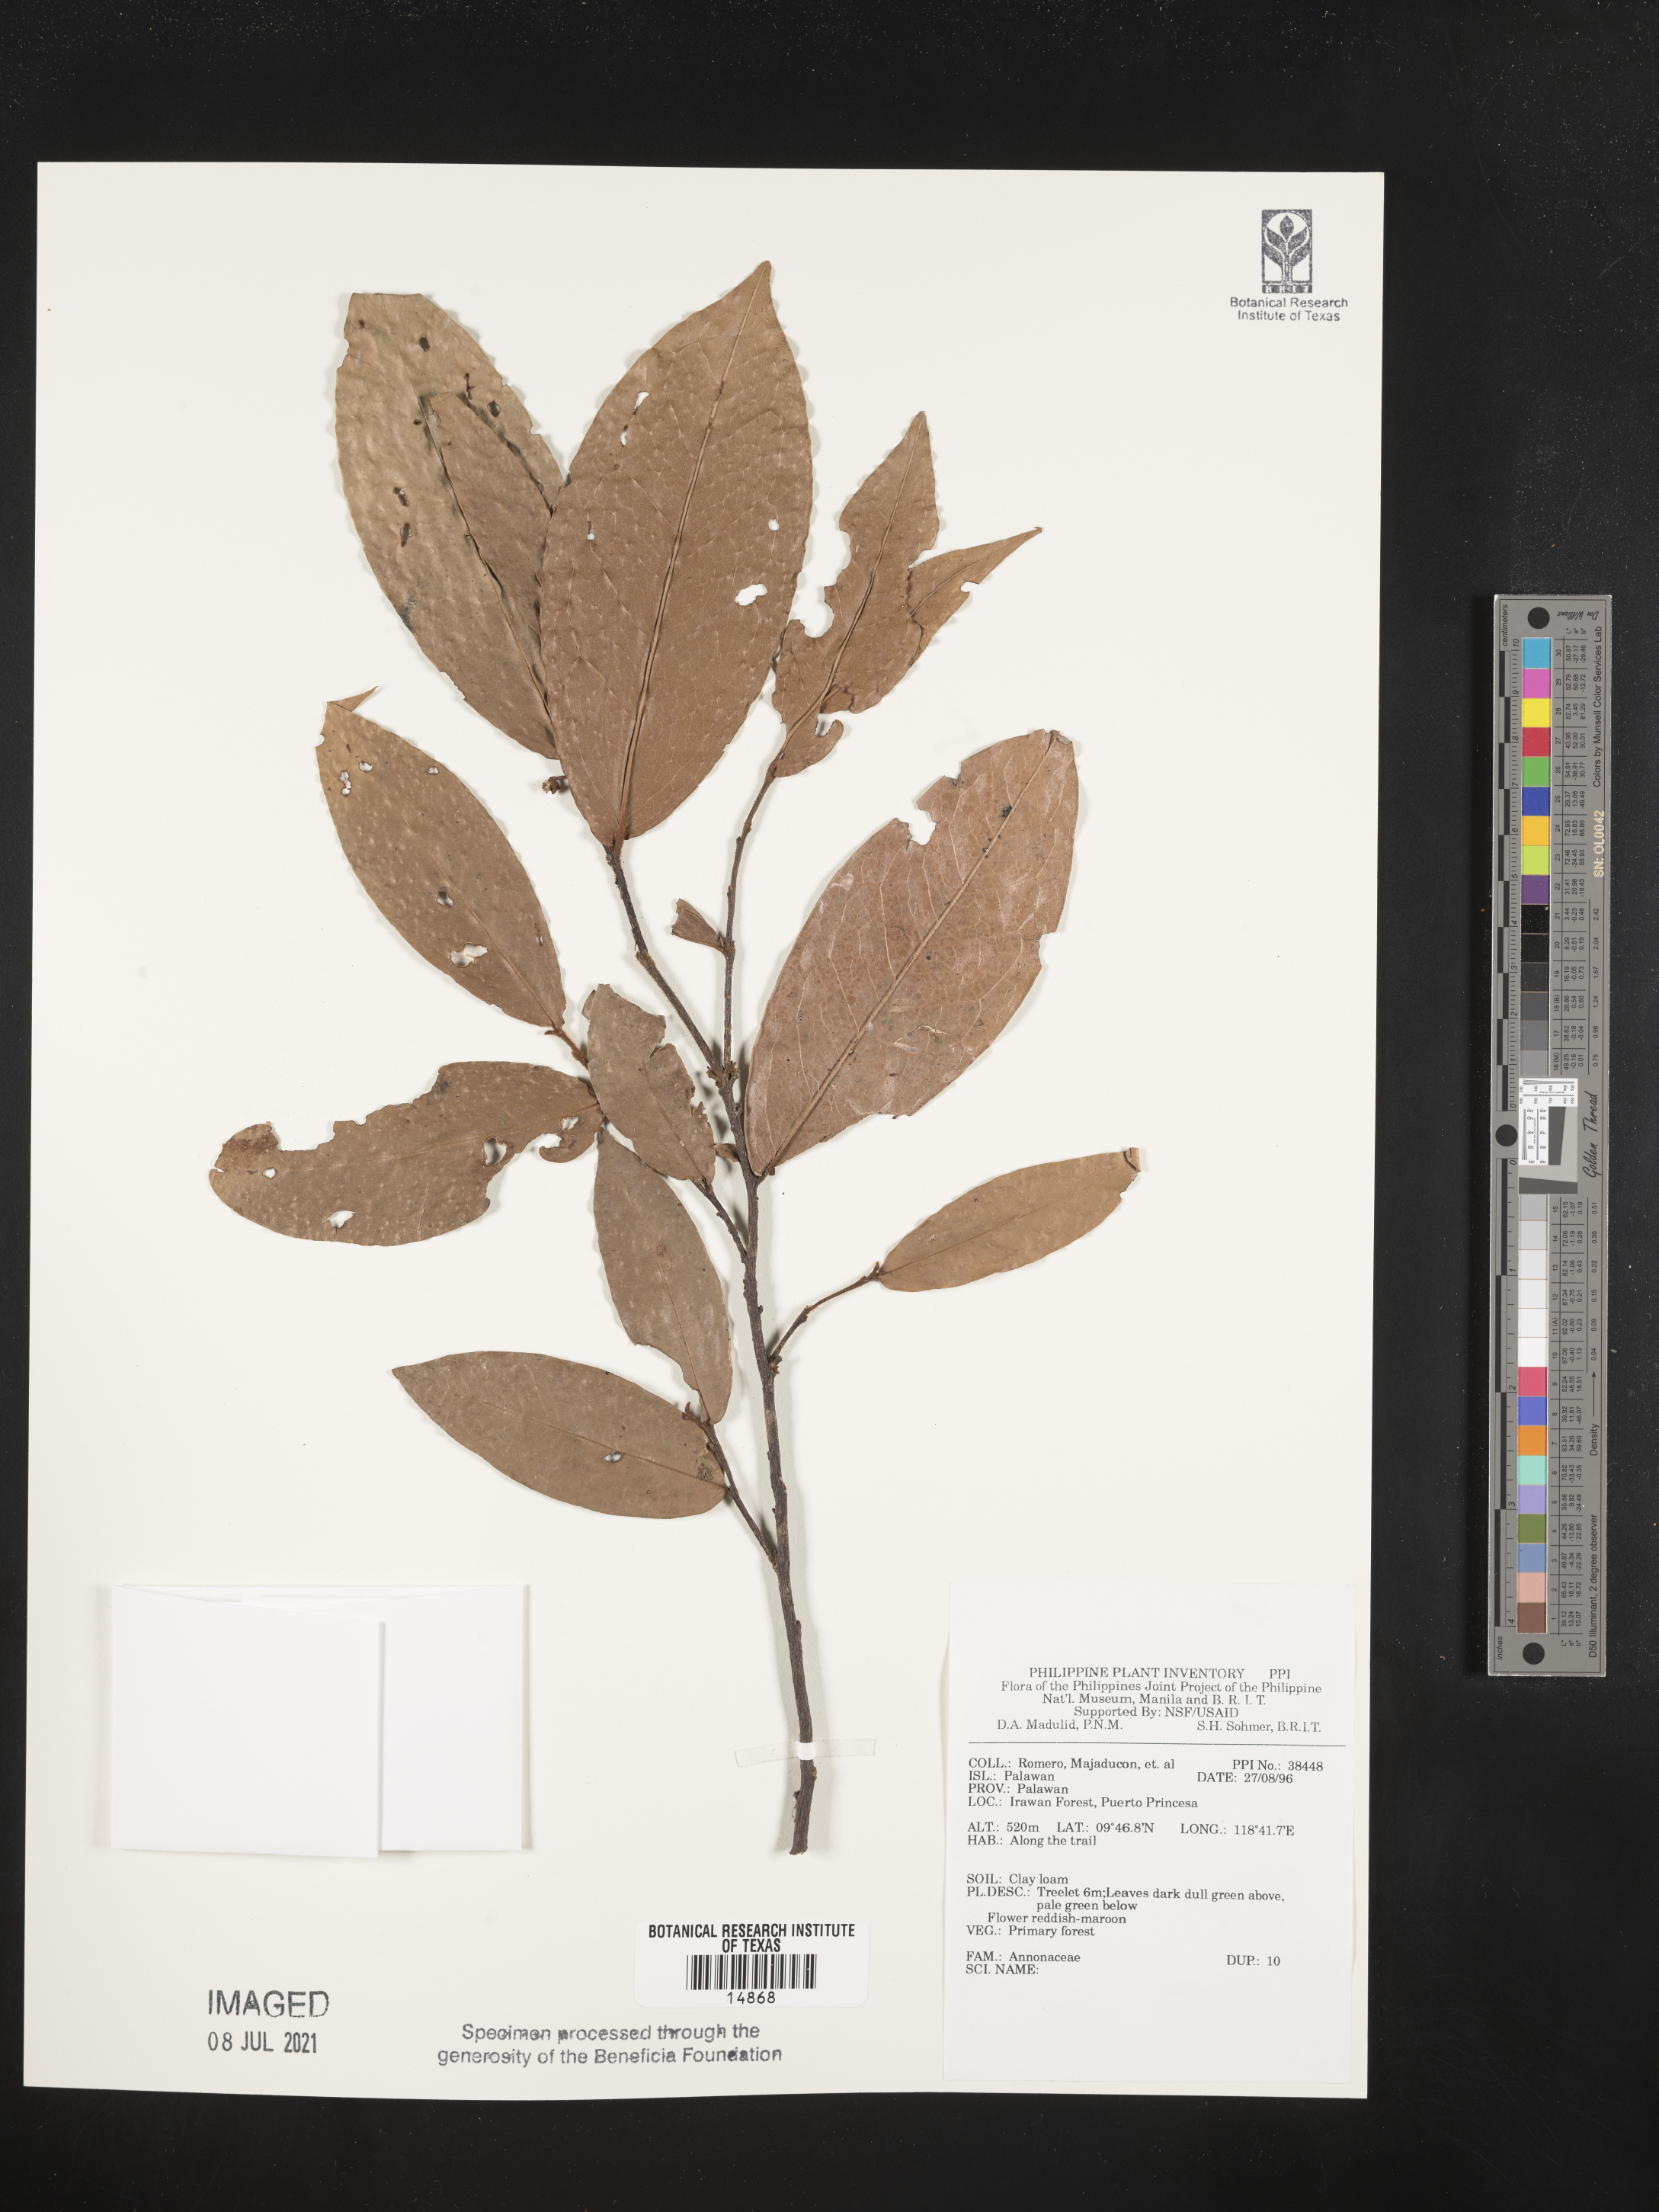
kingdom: Plantae
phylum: Tracheophyta
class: Magnoliopsida
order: Magnoliales
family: Annonaceae
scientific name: Annonaceae
